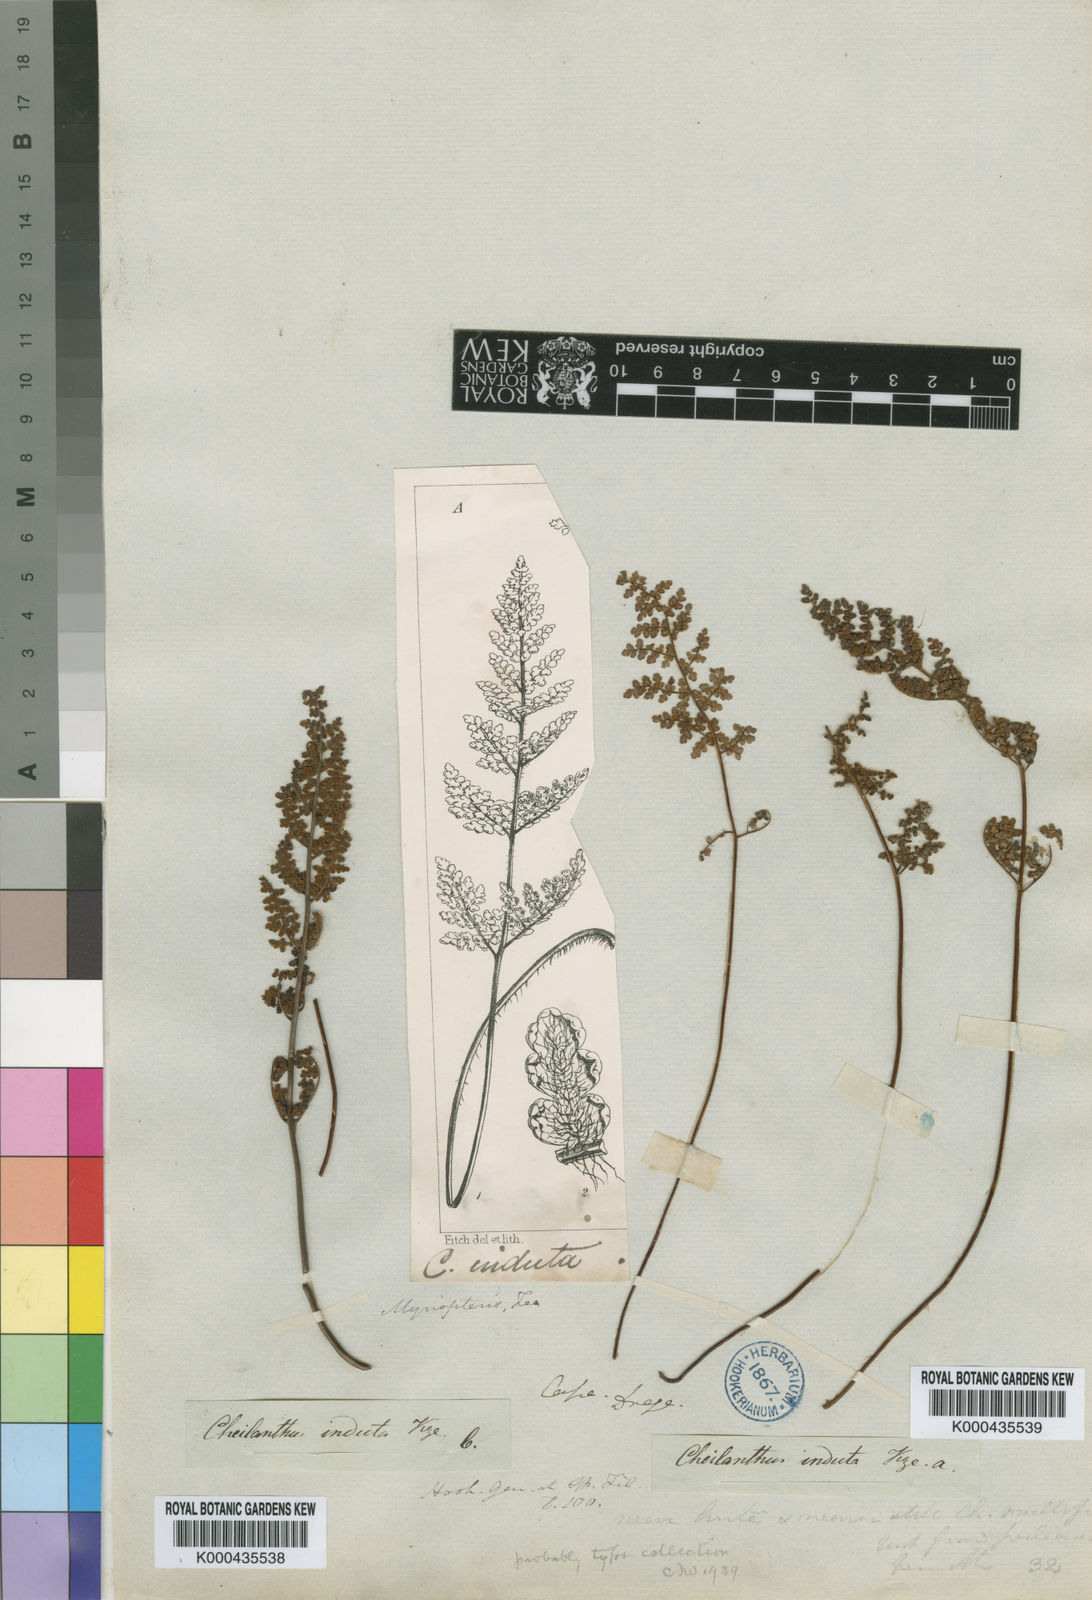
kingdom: Plantae
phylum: Tracheophyta
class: Polypodiopsida
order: Polypodiales
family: Pteridaceae
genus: Cheilanthes
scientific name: Cheilanthes induta
